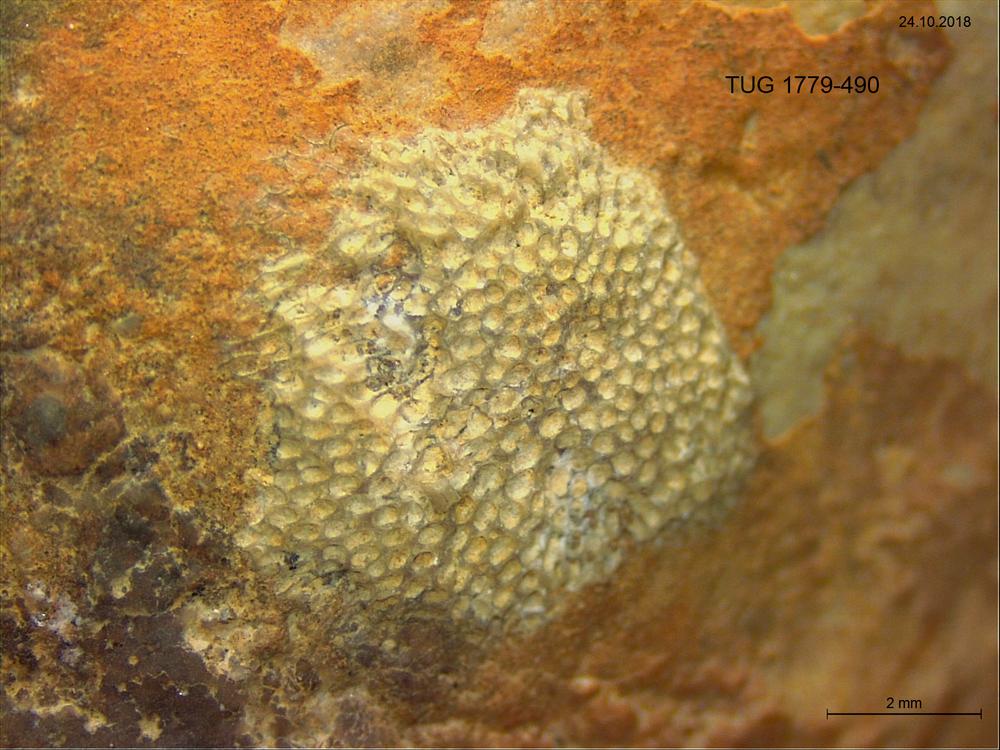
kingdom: Animalia
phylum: Bryozoa
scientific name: Bryozoa
